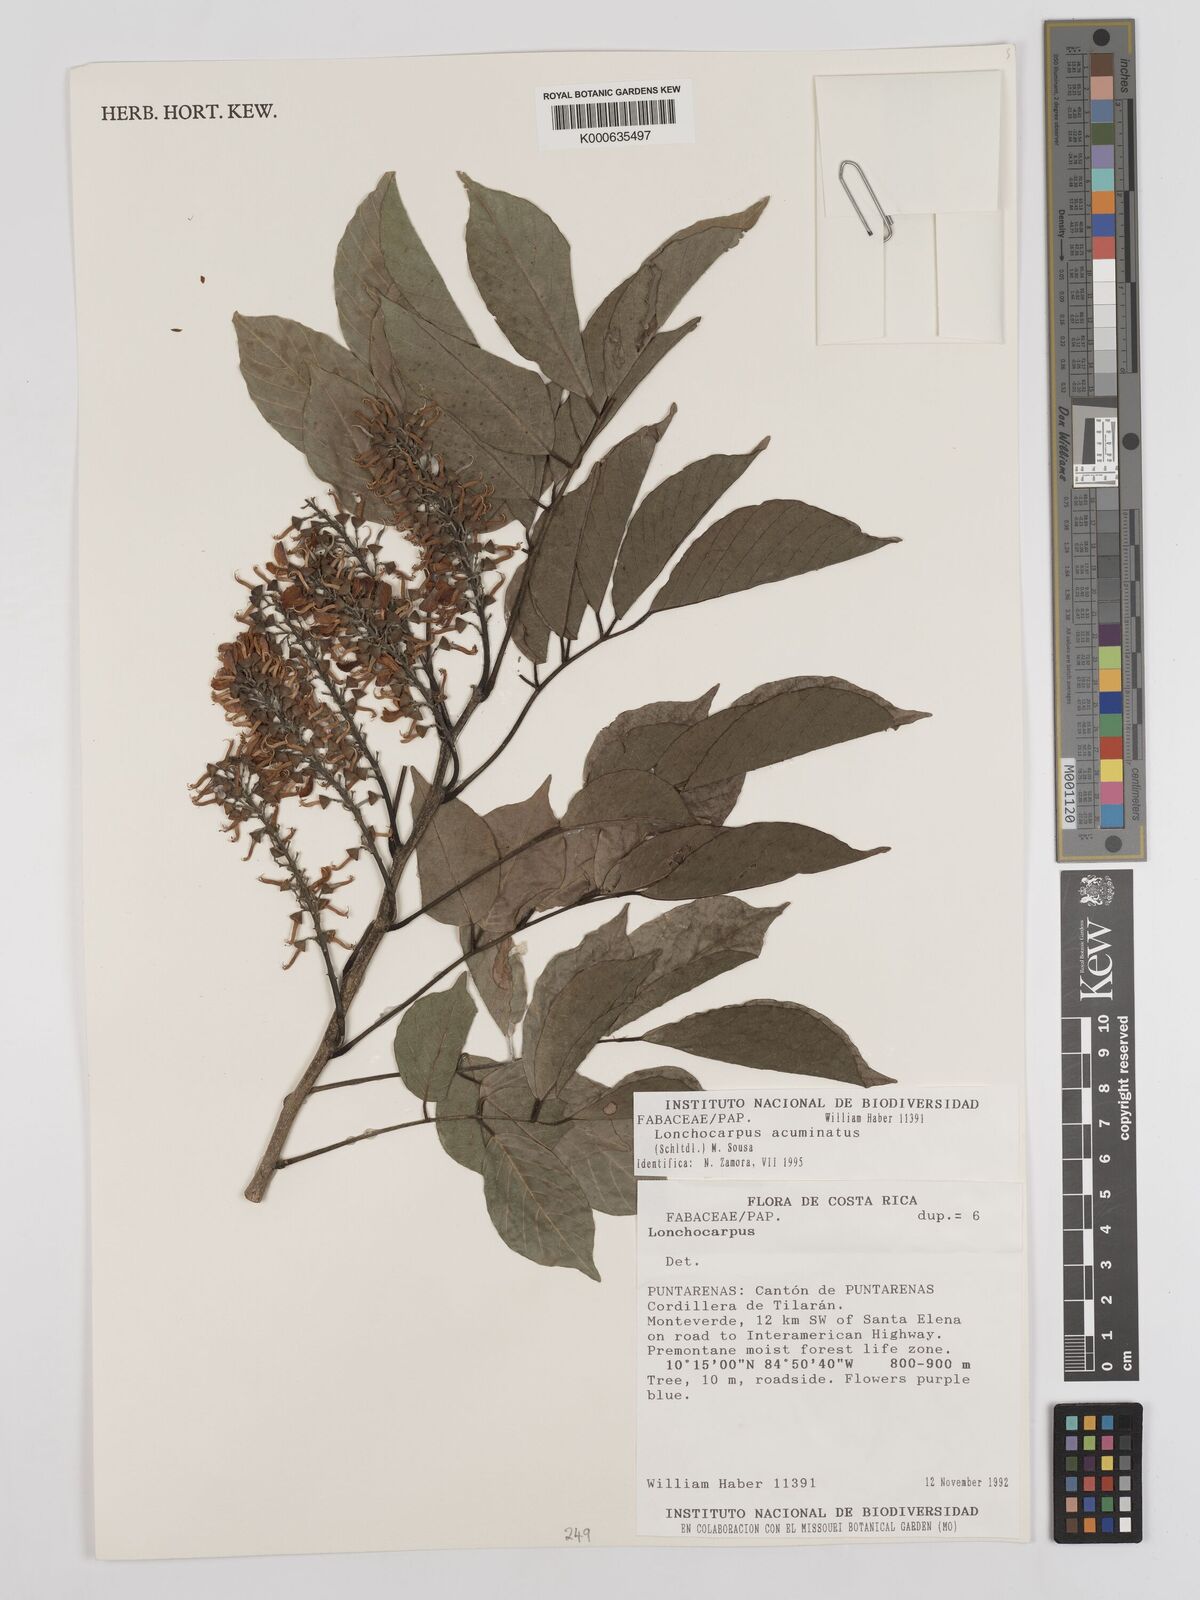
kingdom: Plantae
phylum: Tracheophyta
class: Magnoliopsida
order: Fabales
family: Fabaceae
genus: Lonchocarpus
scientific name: Lonchocarpus acuminatus
